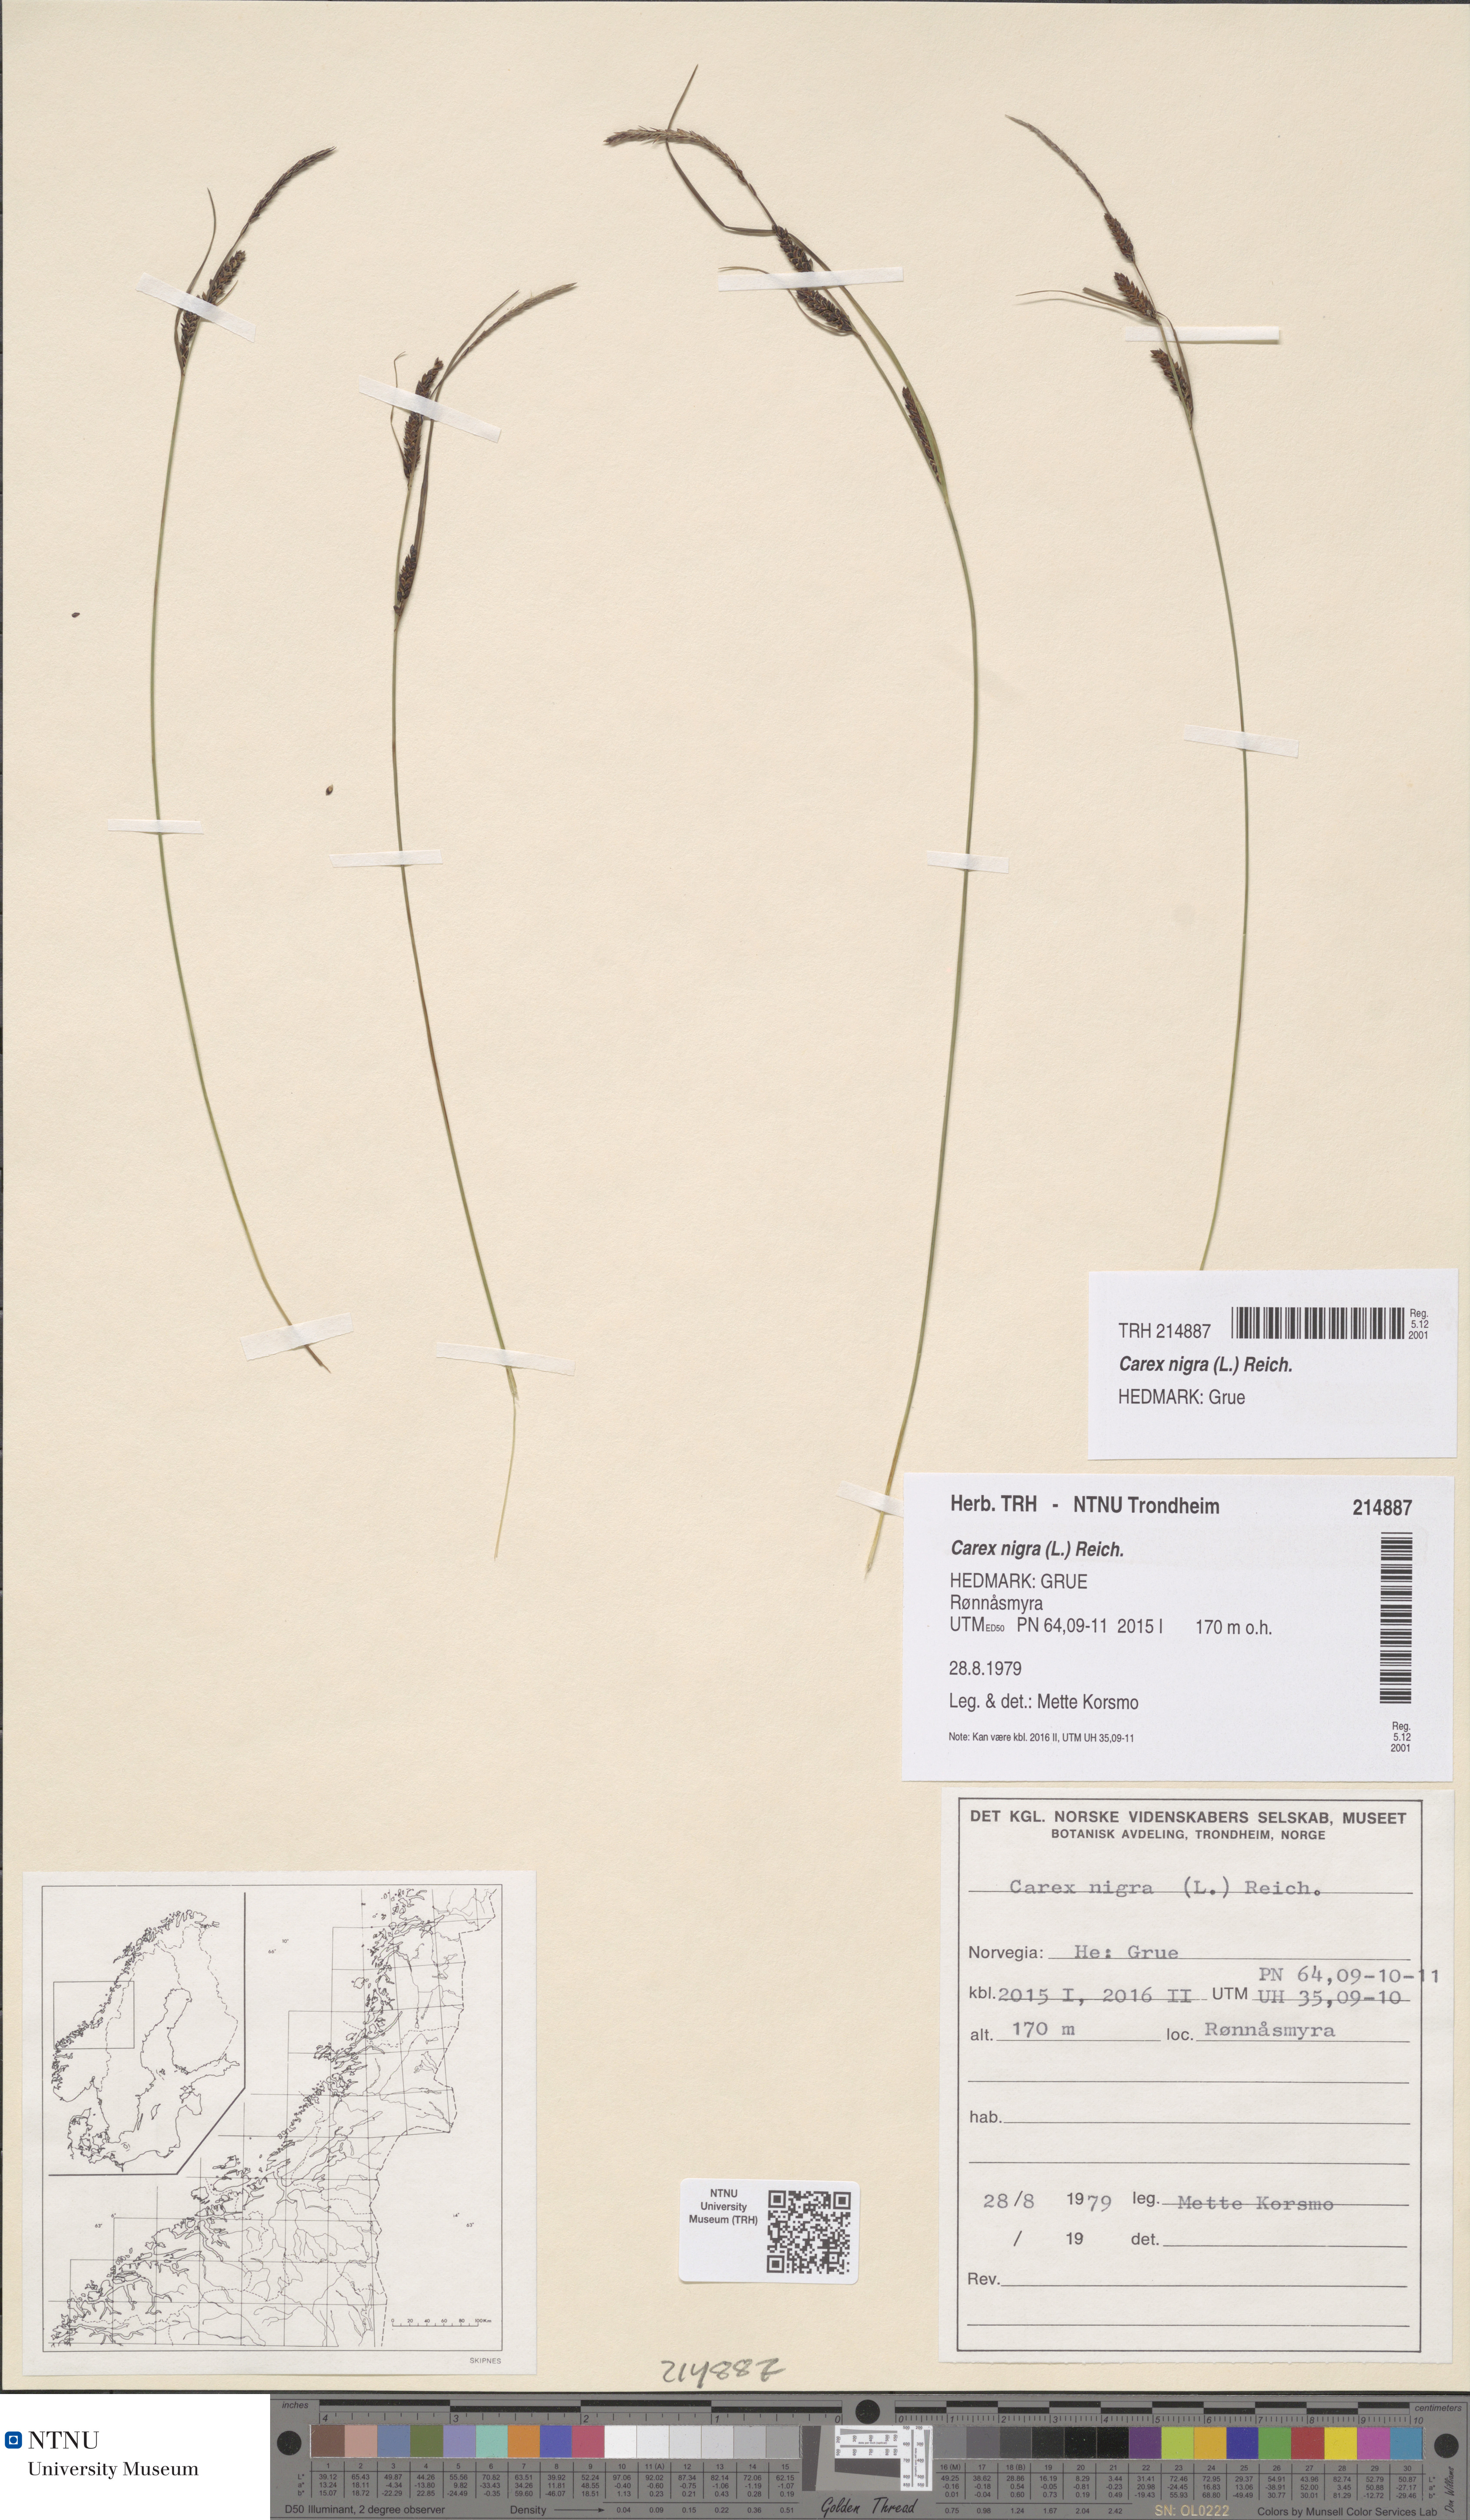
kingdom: Plantae
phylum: Tracheophyta
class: Liliopsida
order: Poales
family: Cyperaceae
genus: Carex
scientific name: Carex nigra
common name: Common sedge
